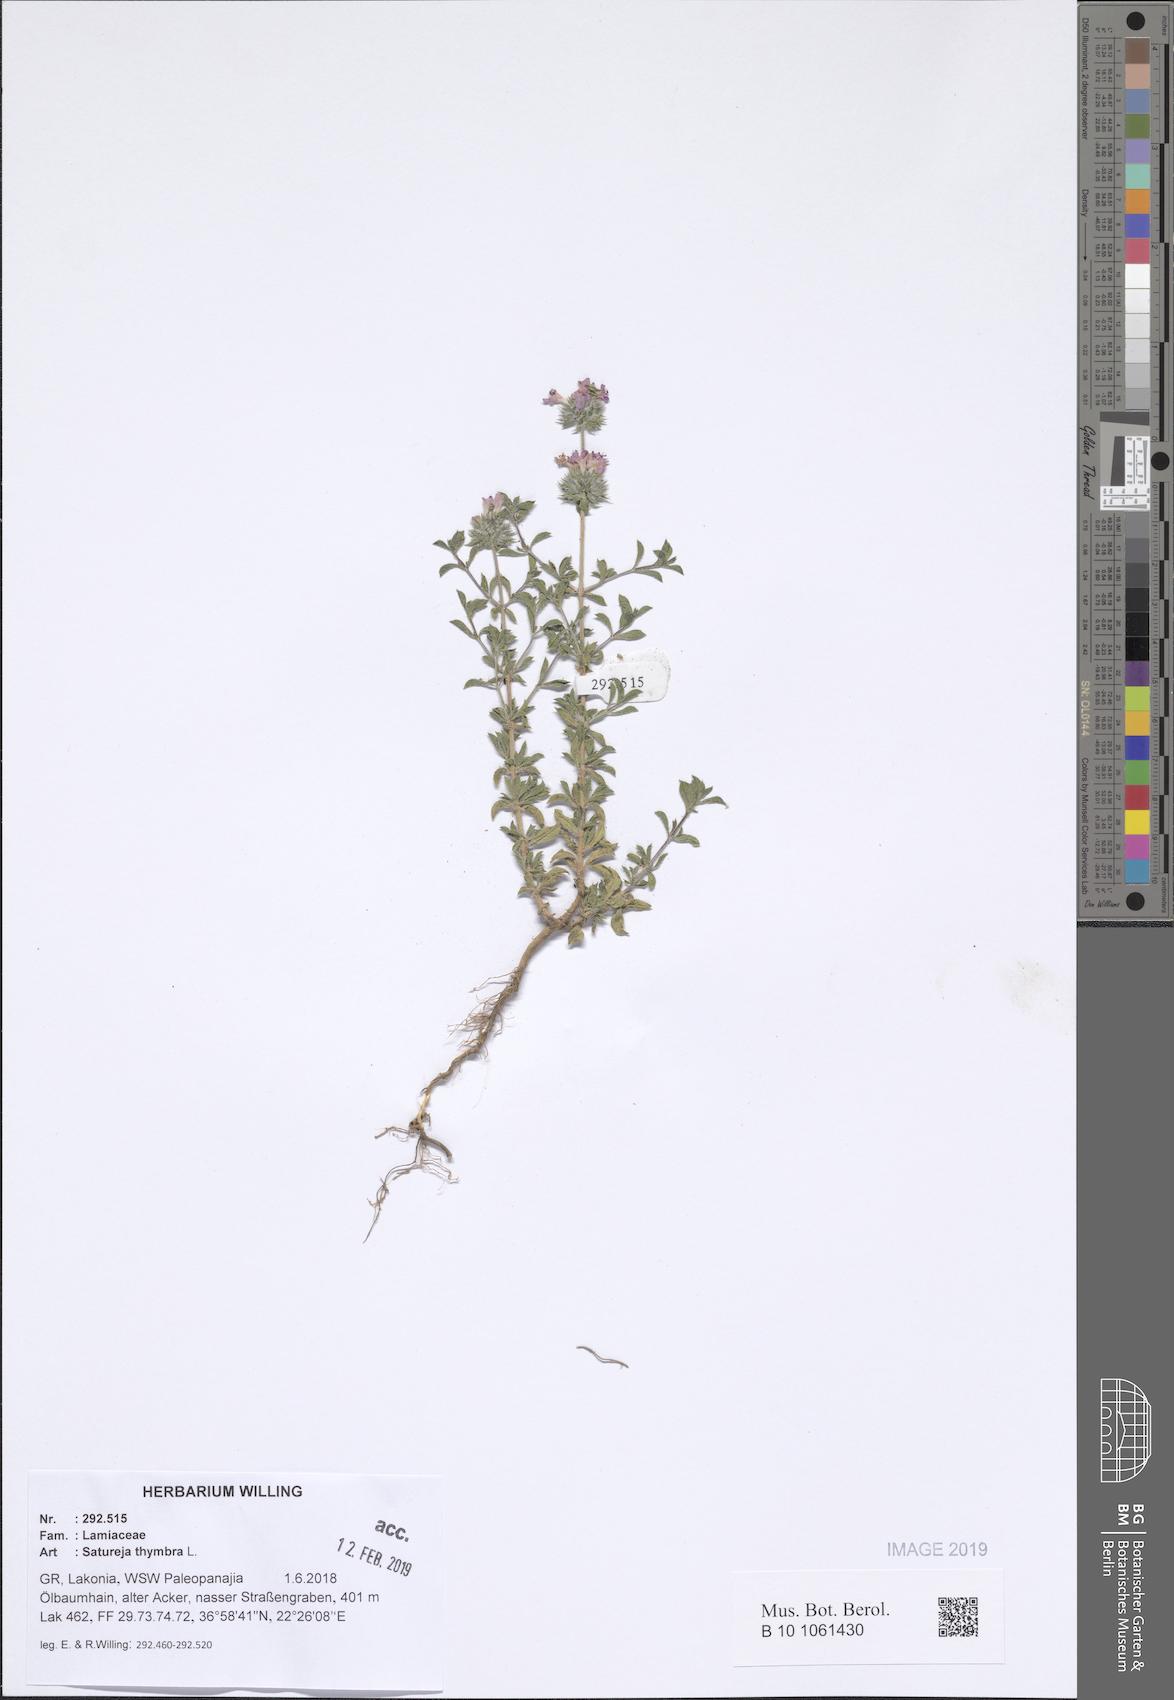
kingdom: Plantae
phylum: Tracheophyta
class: Magnoliopsida
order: Lamiales
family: Lamiaceae
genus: Satureja
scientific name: Satureja thymbra
